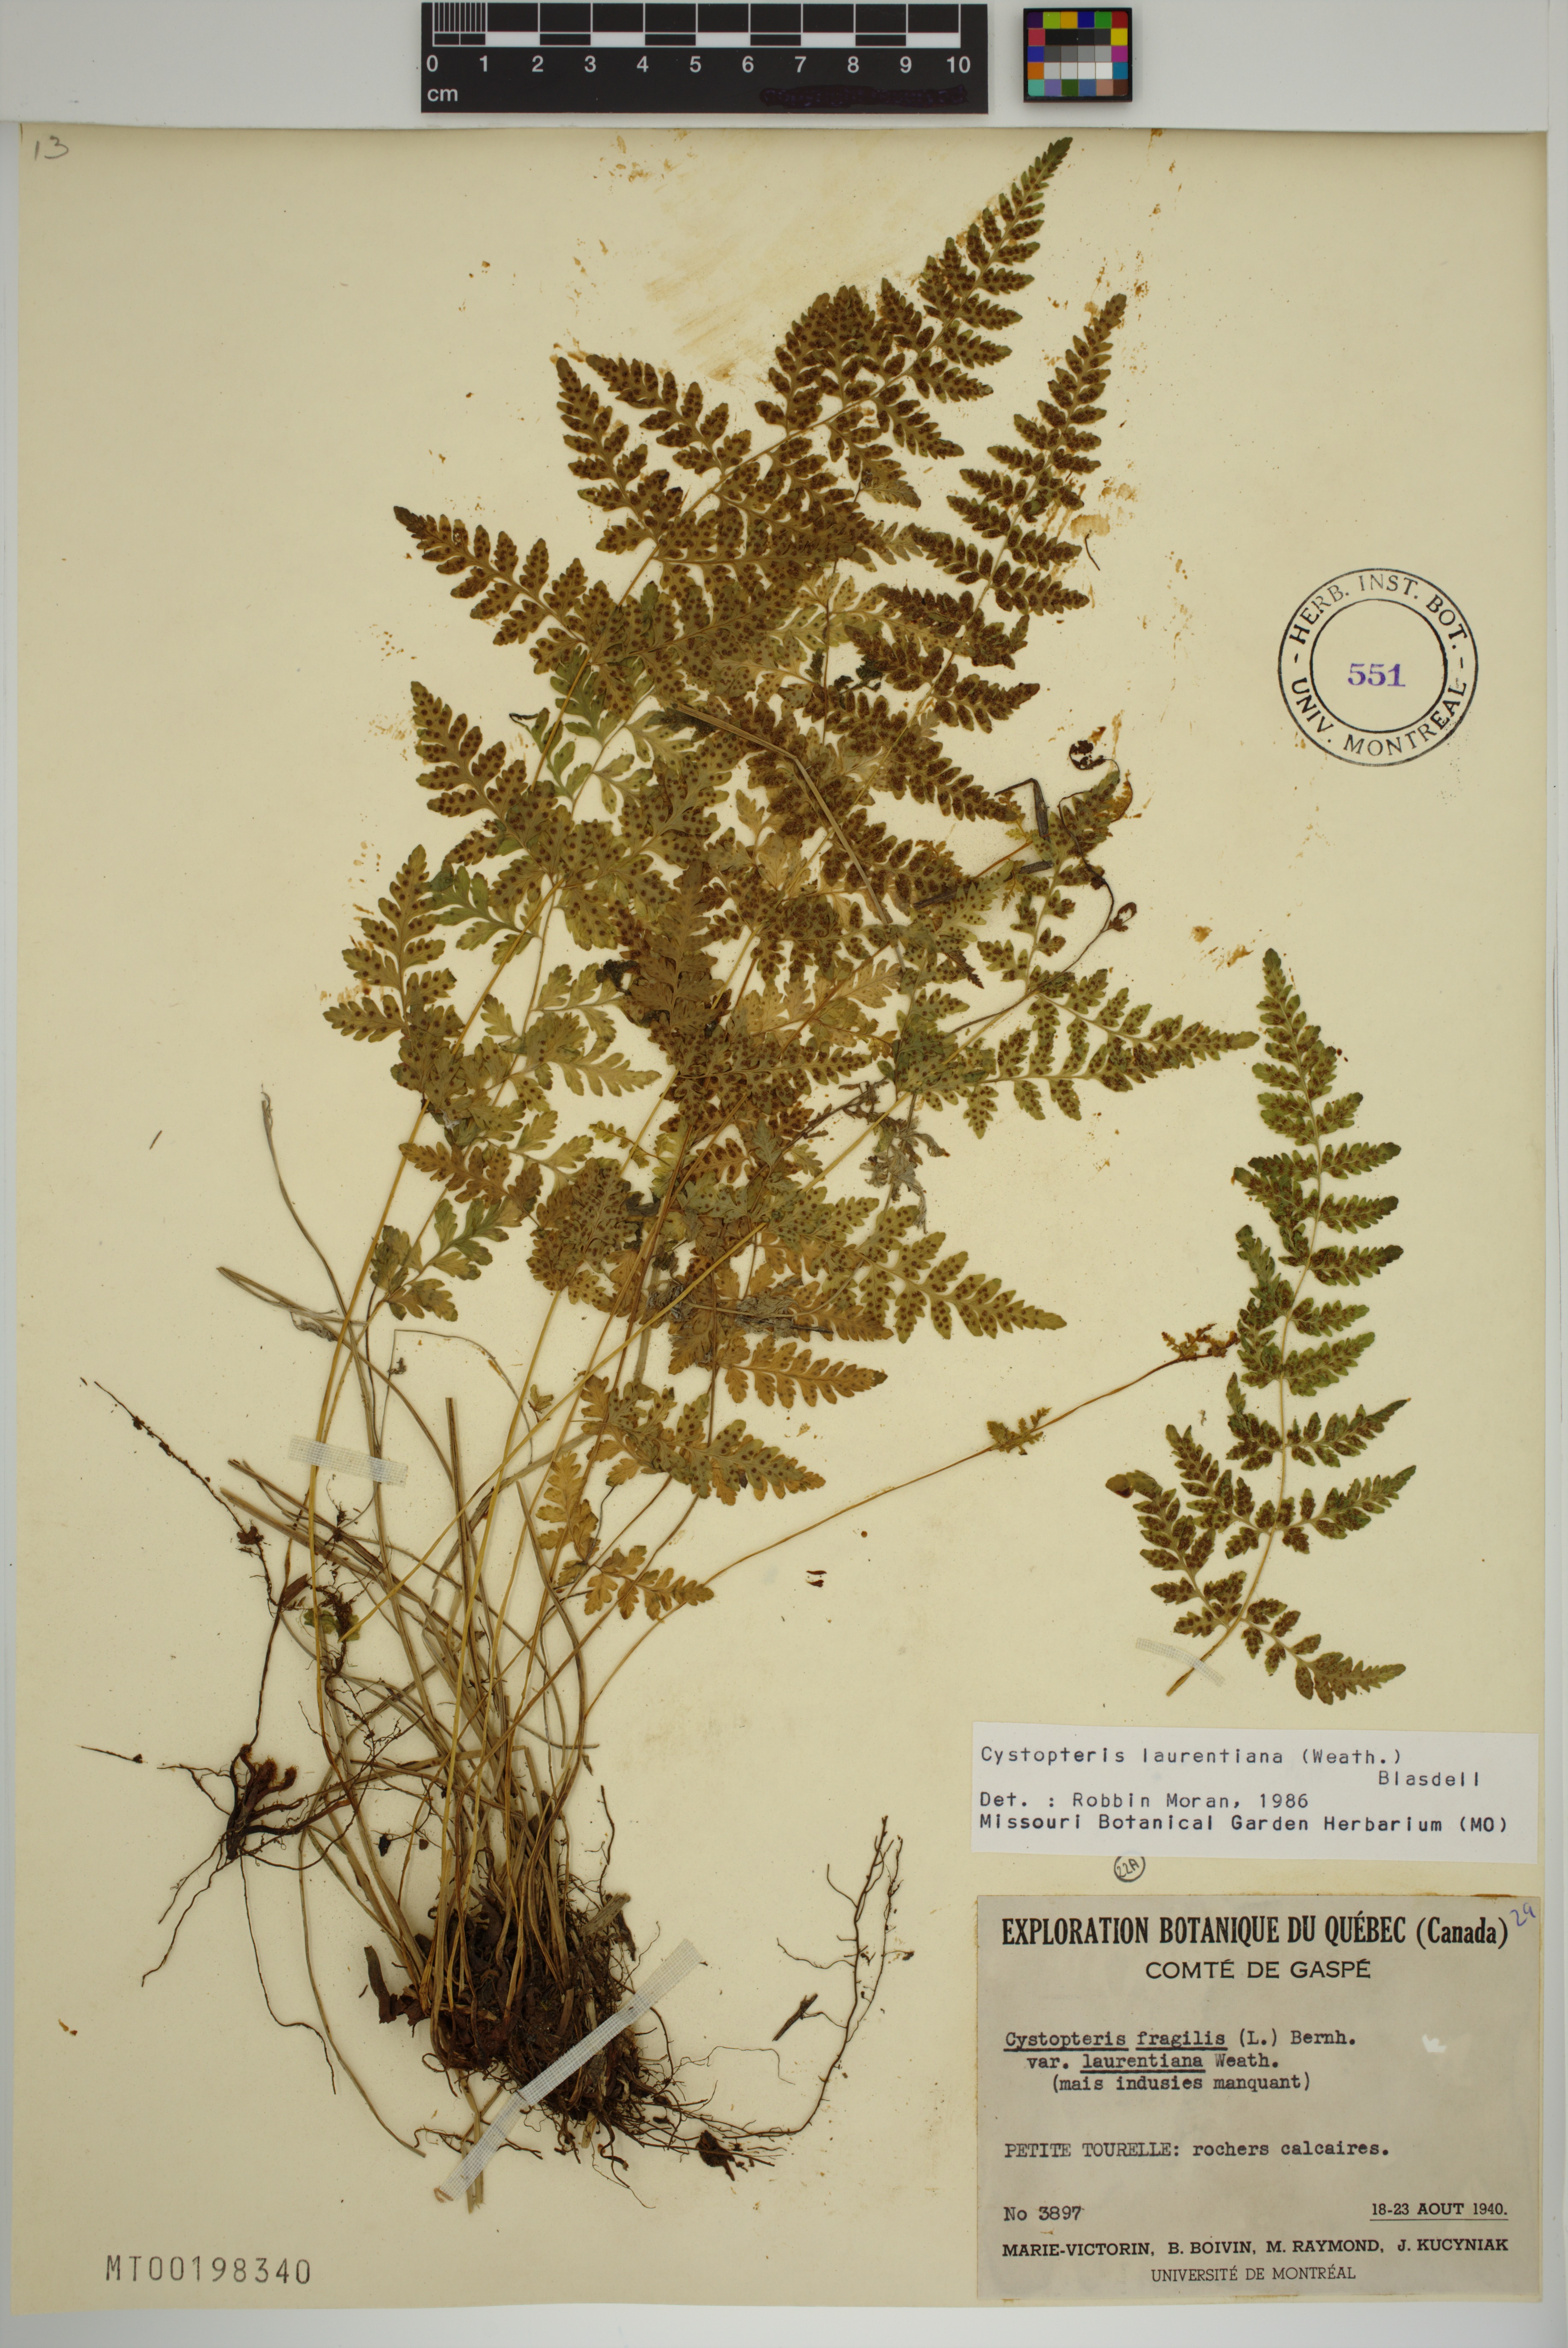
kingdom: Plantae
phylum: Tracheophyta
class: Polypodiopsida
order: Polypodiales
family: Cystopteridaceae
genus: Cystopteris
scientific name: Cystopteris laurentiana
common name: Blasdell's laurentian bladder fern
